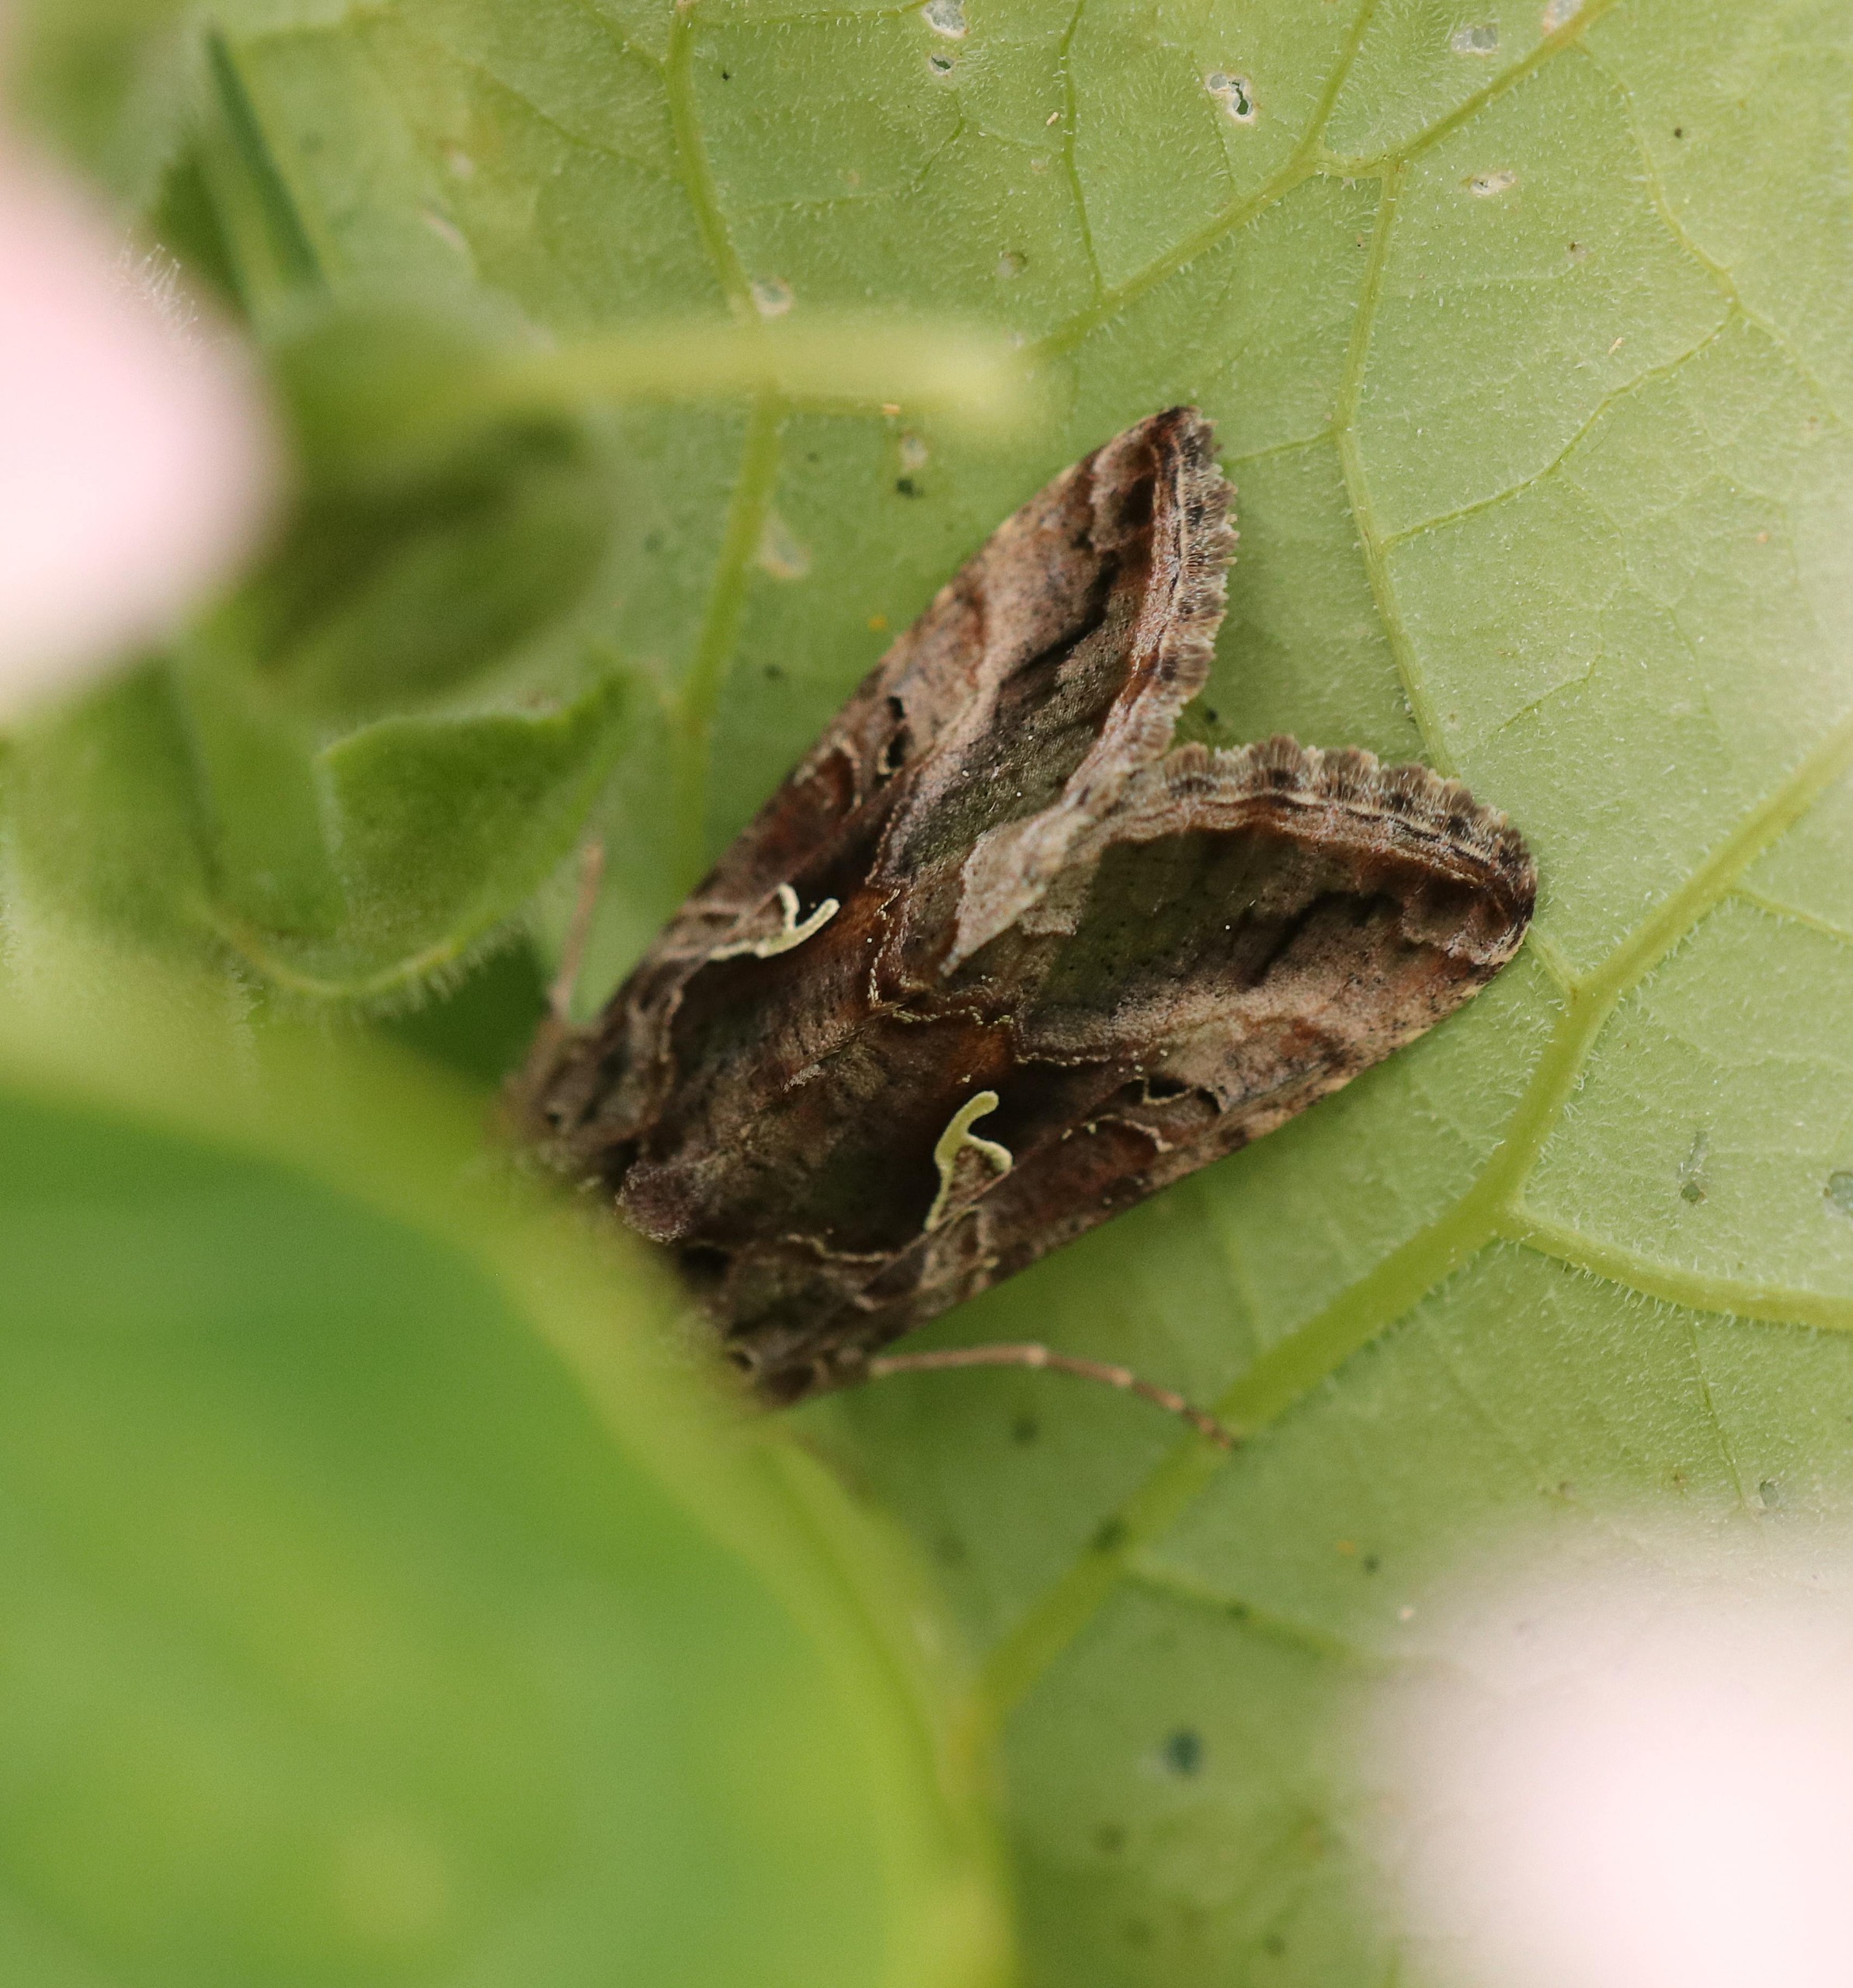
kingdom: Animalia
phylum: Arthropoda
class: Insecta
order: Lepidoptera
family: Noctuidae
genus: Autographa
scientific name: Autographa gamma
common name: Gammaugle
